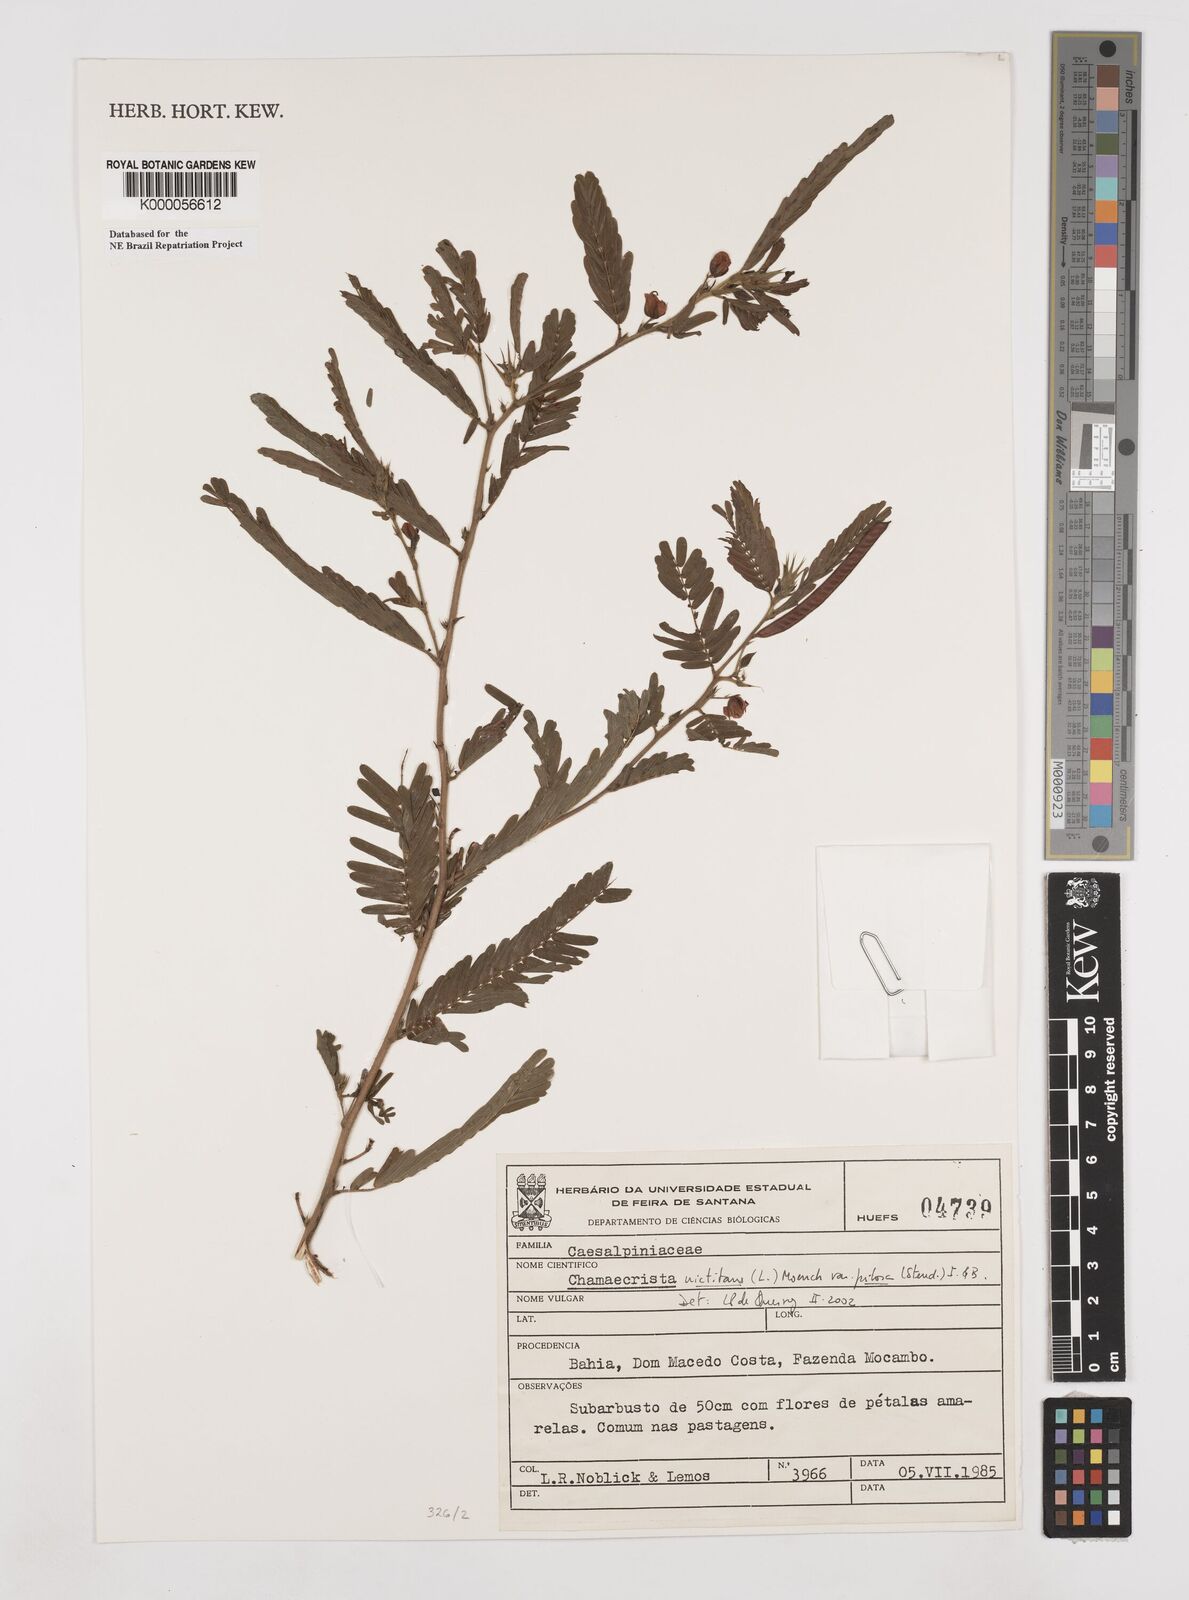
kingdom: Plantae
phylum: Tracheophyta
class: Magnoliopsida
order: Fabales
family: Fabaceae
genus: Chamaecrista
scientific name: Chamaecrista nictitans
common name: Sensitive cassia
